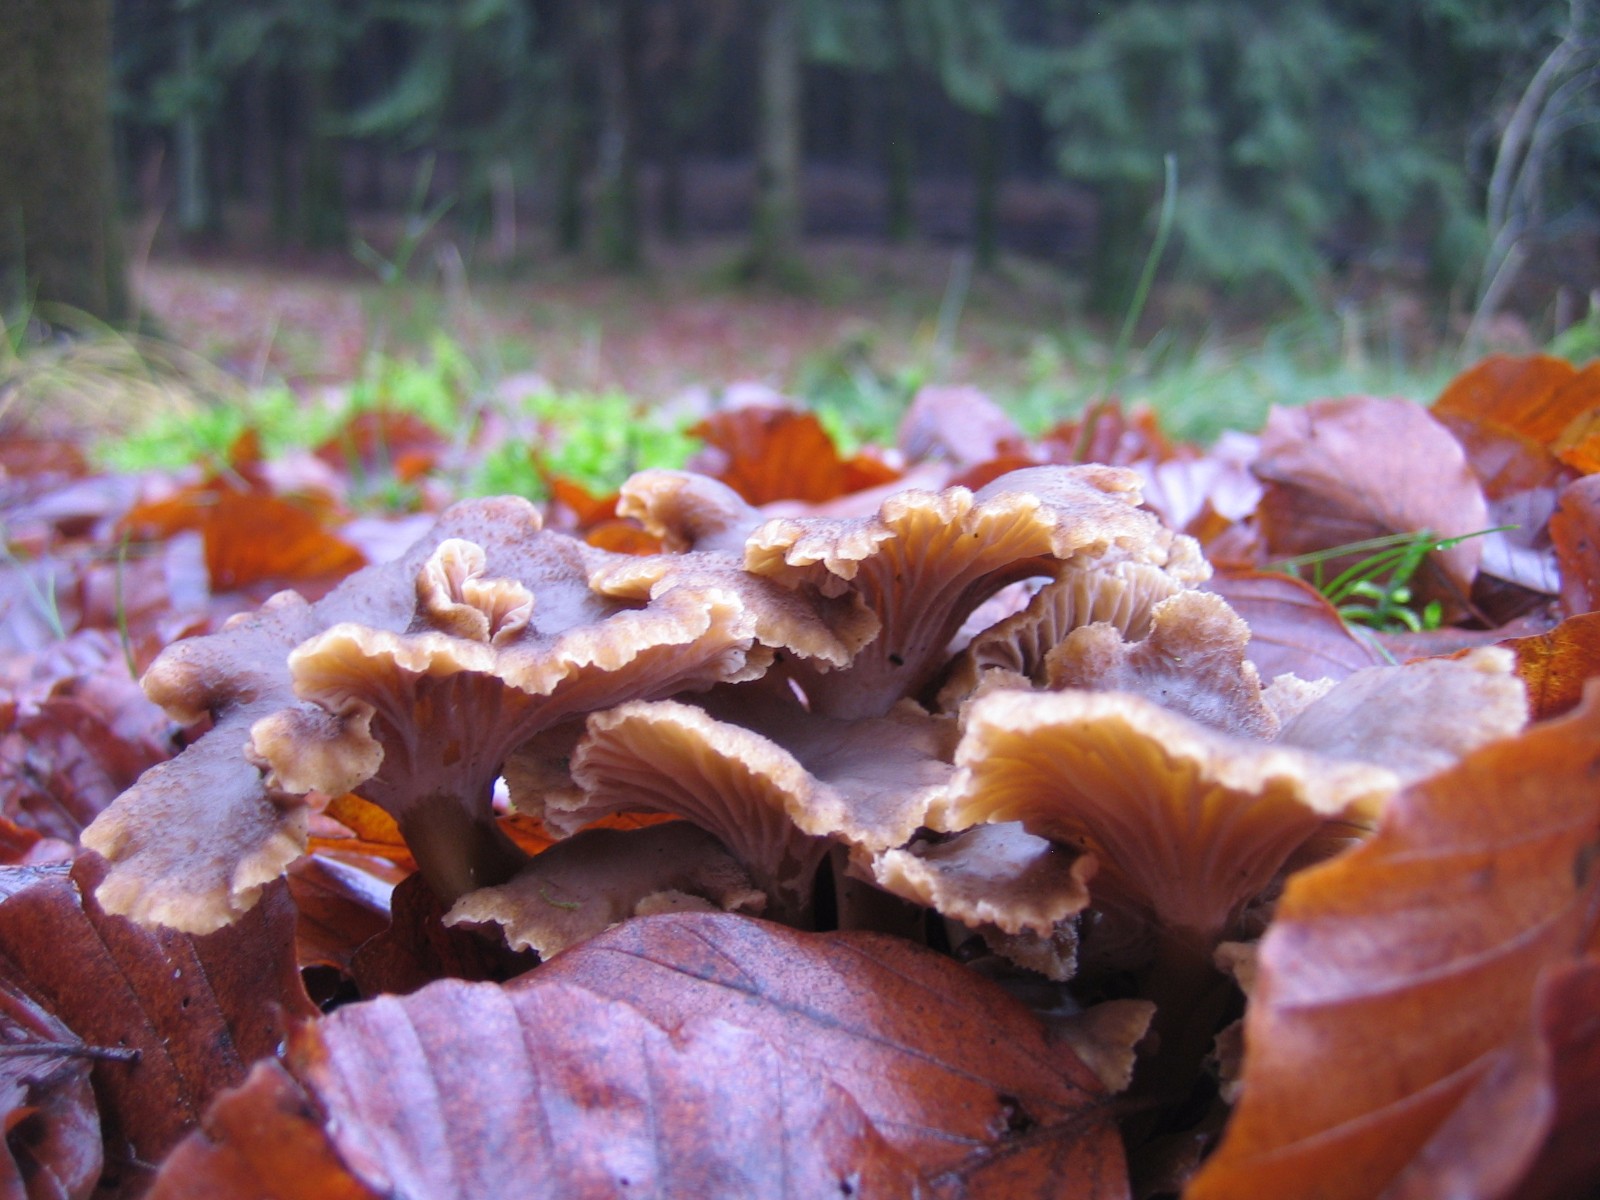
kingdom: Fungi
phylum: Basidiomycota
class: Agaricomycetes
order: Cantharellales
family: Hydnaceae
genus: Craterellus
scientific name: Craterellus tubaeformis
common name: tragt-kantarel
